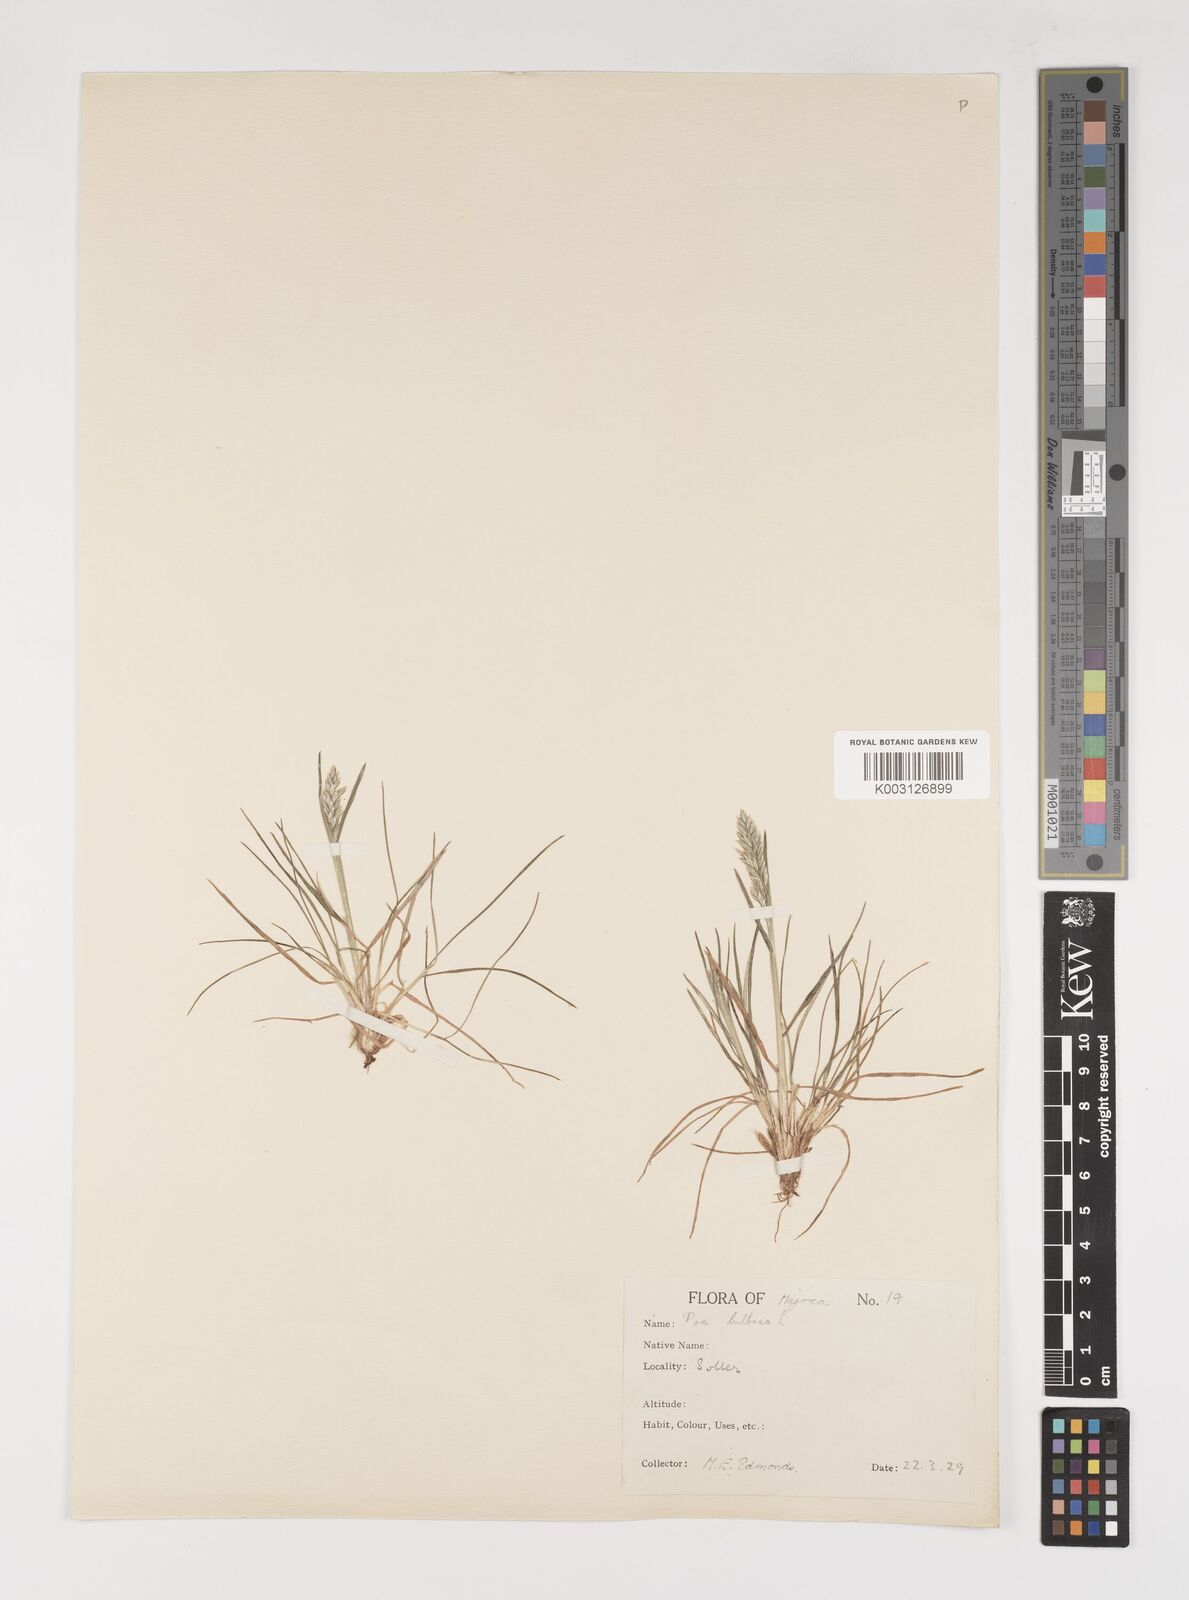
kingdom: Plantae
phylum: Tracheophyta
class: Liliopsida
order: Poales
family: Poaceae
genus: Poa
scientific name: Poa bulbosa
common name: Bulbous bluegrass
